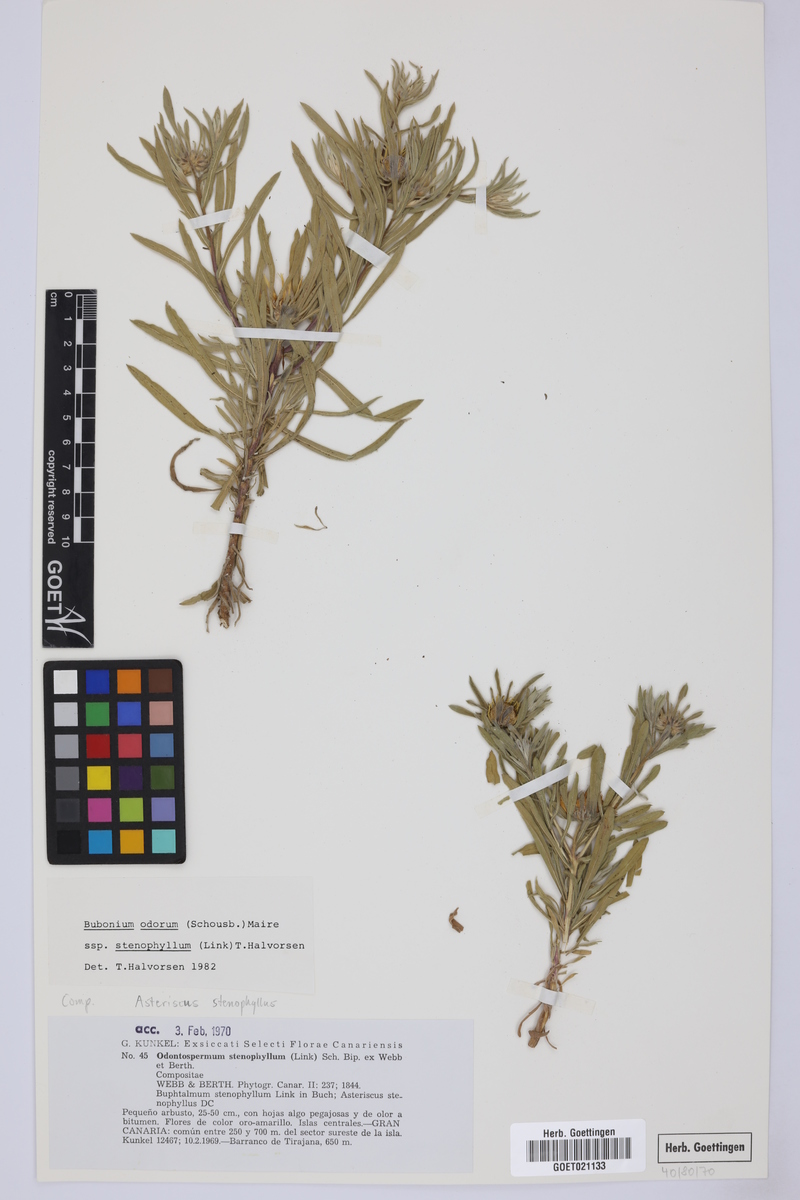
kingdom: Plantae
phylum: Tracheophyta
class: Magnoliopsida
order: Asterales
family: Asteraceae
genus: Asteriscus
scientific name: Asteriscus graveolens
